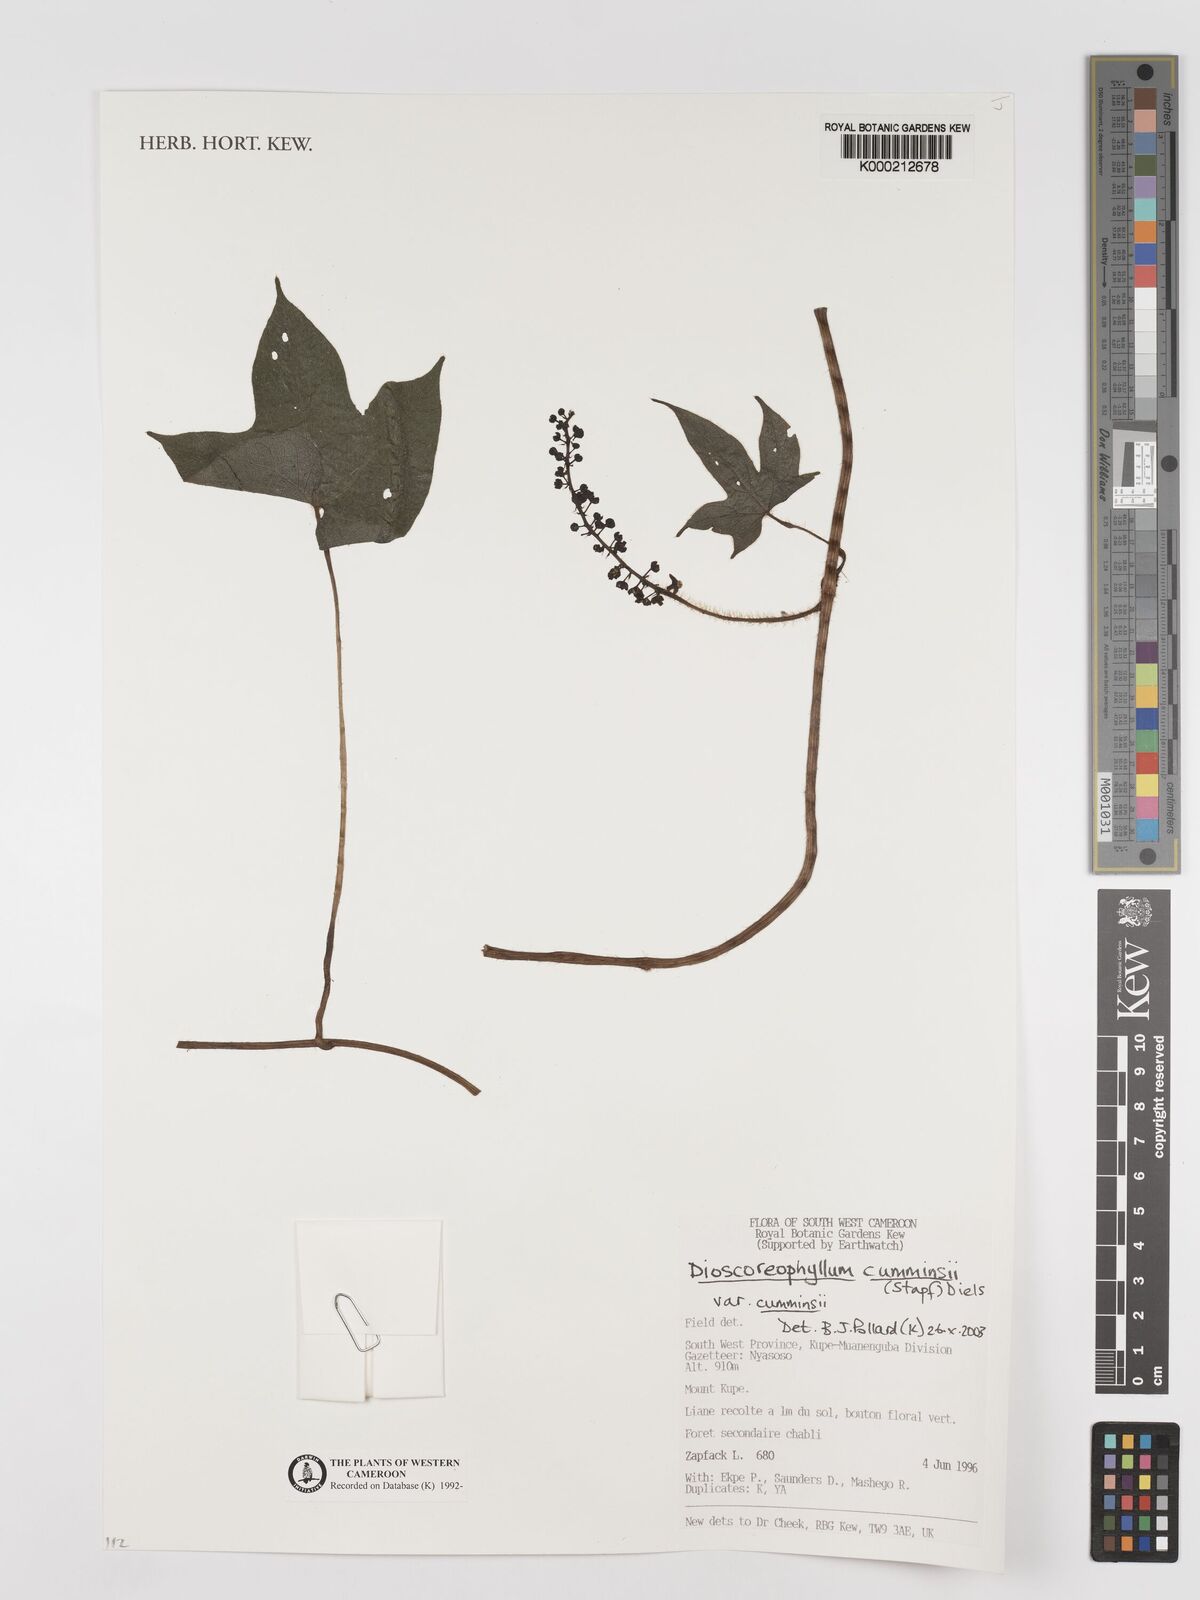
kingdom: Plantae
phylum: Tracheophyta
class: Magnoliopsida
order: Ranunculales
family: Menispermaceae
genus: Dioscoreophyllum
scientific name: Dioscoreophyllum volkensii
